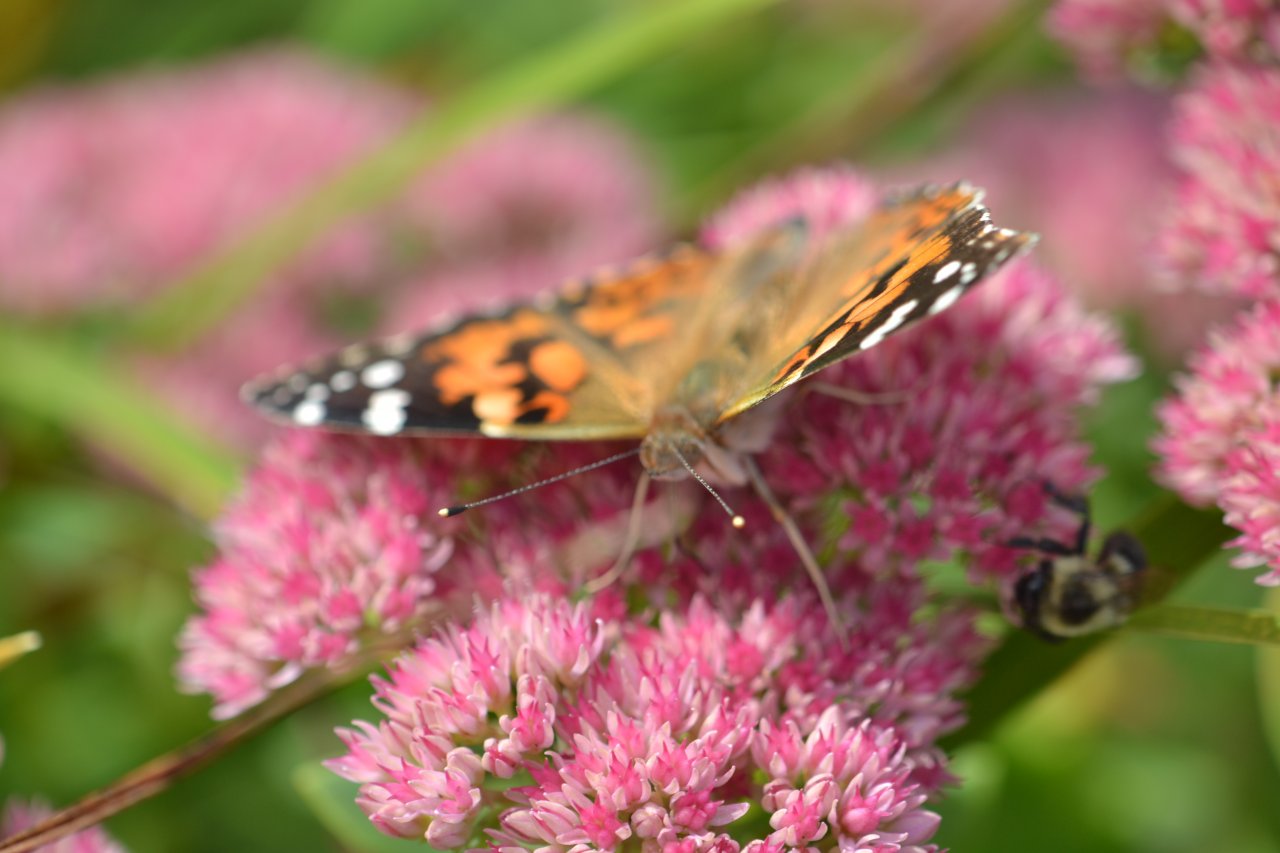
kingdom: Animalia
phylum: Arthropoda
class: Insecta
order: Lepidoptera
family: Nymphalidae
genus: Vanessa
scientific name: Vanessa cardui
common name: Painted Lady
